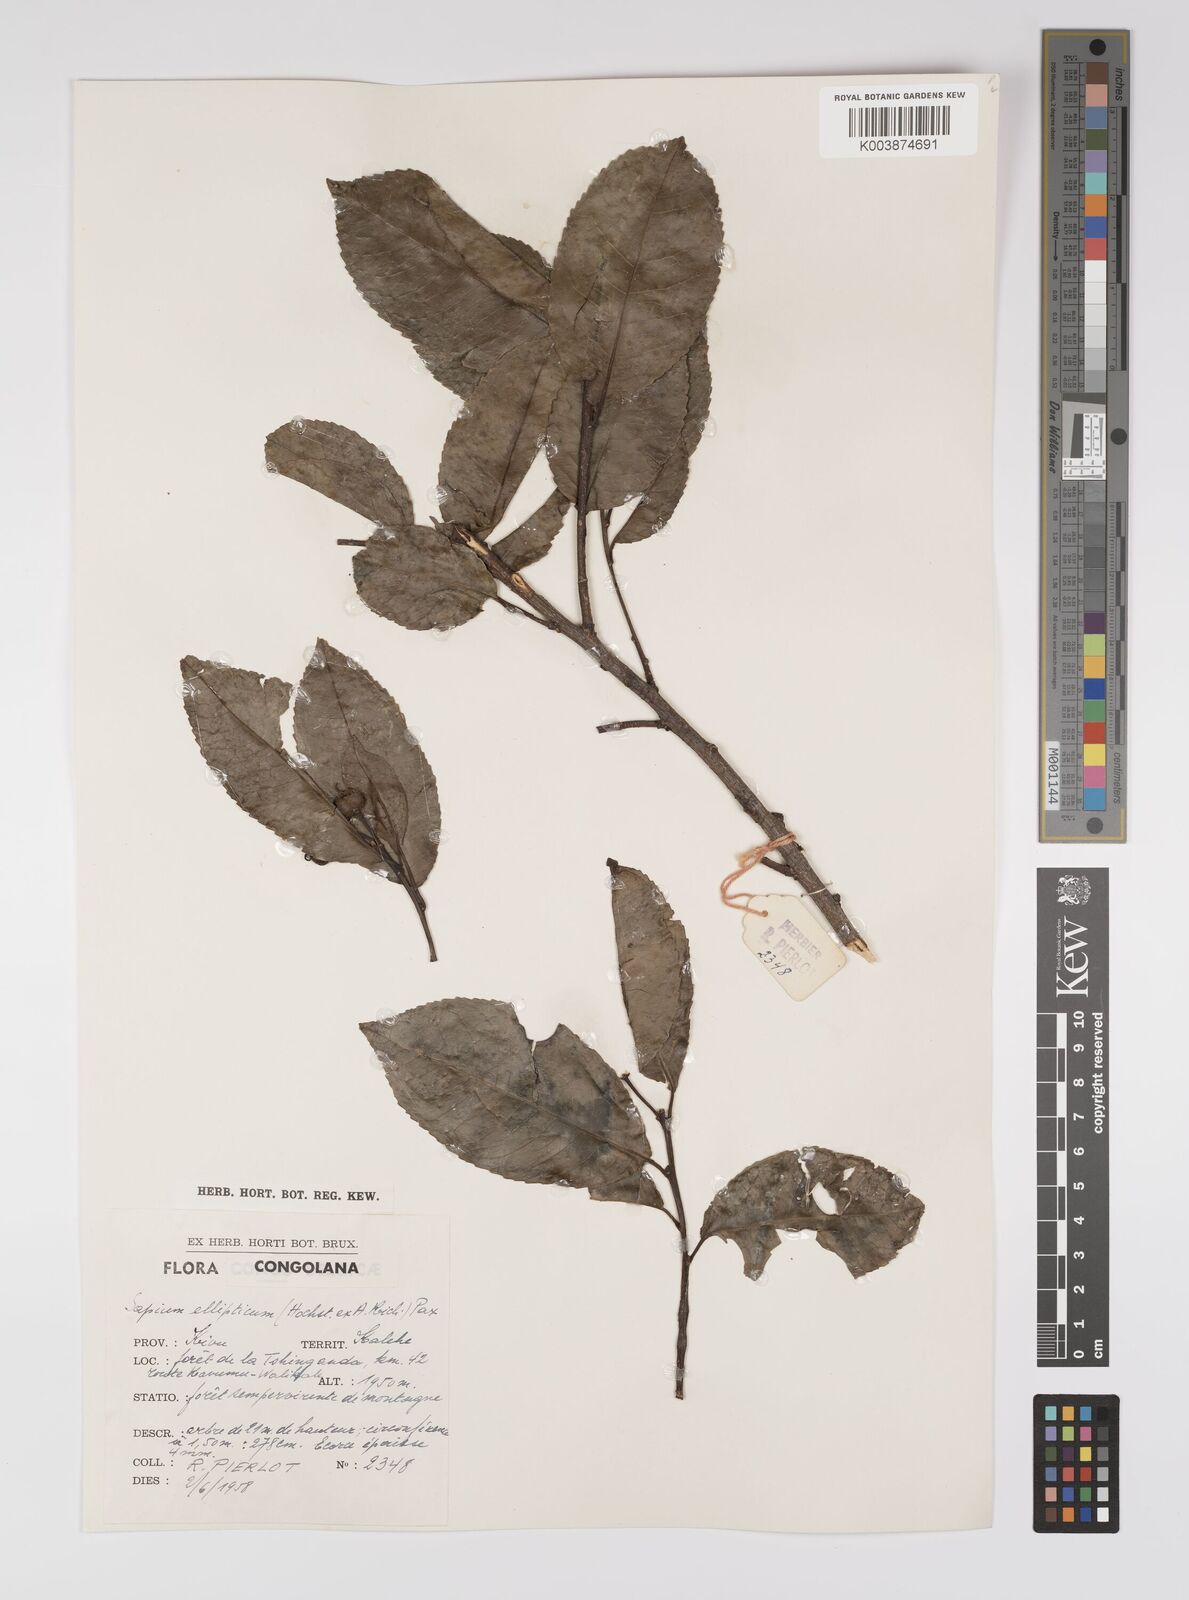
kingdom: Plantae
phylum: Tracheophyta
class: Magnoliopsida
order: Malpighiales
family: Euphorbiaceae
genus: Shirakiopsis
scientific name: Shirakiopsis elliptica
